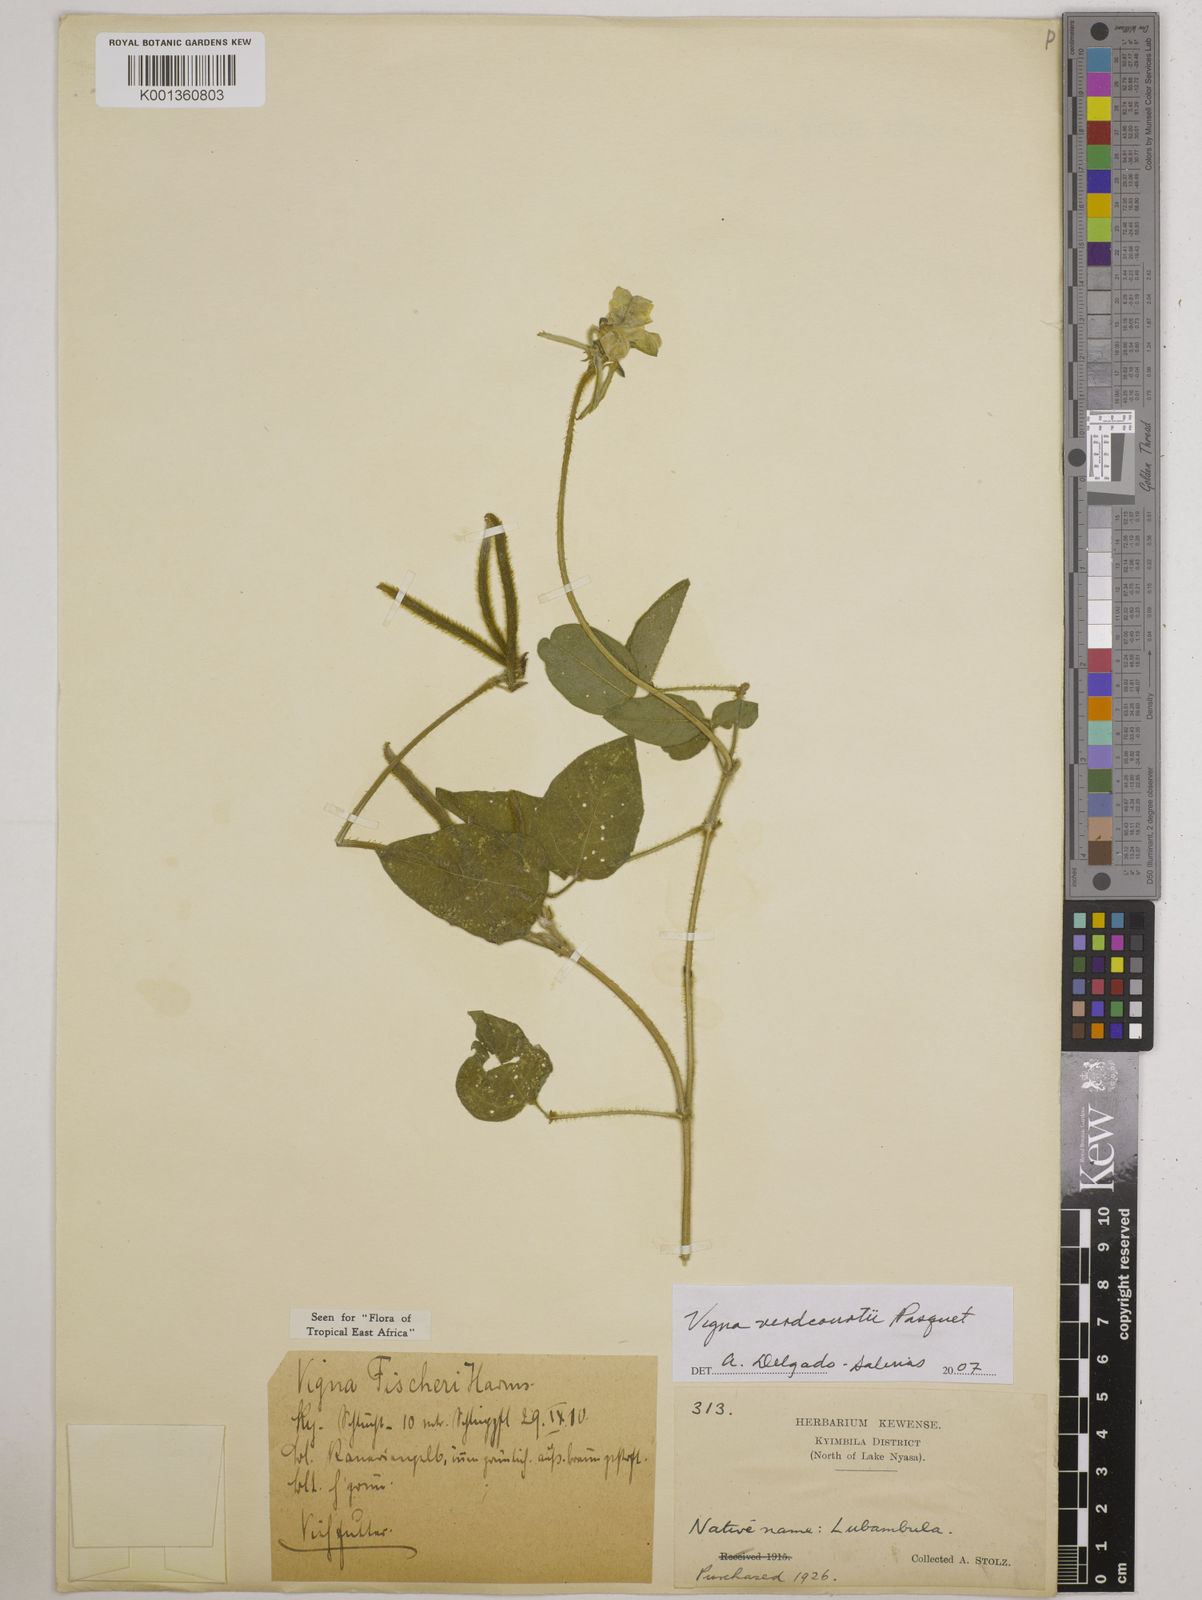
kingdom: Plantae
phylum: Tracheophyta
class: Magnoliopsida
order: Fabales
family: Fabaceae
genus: Vigna
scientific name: Vigna
